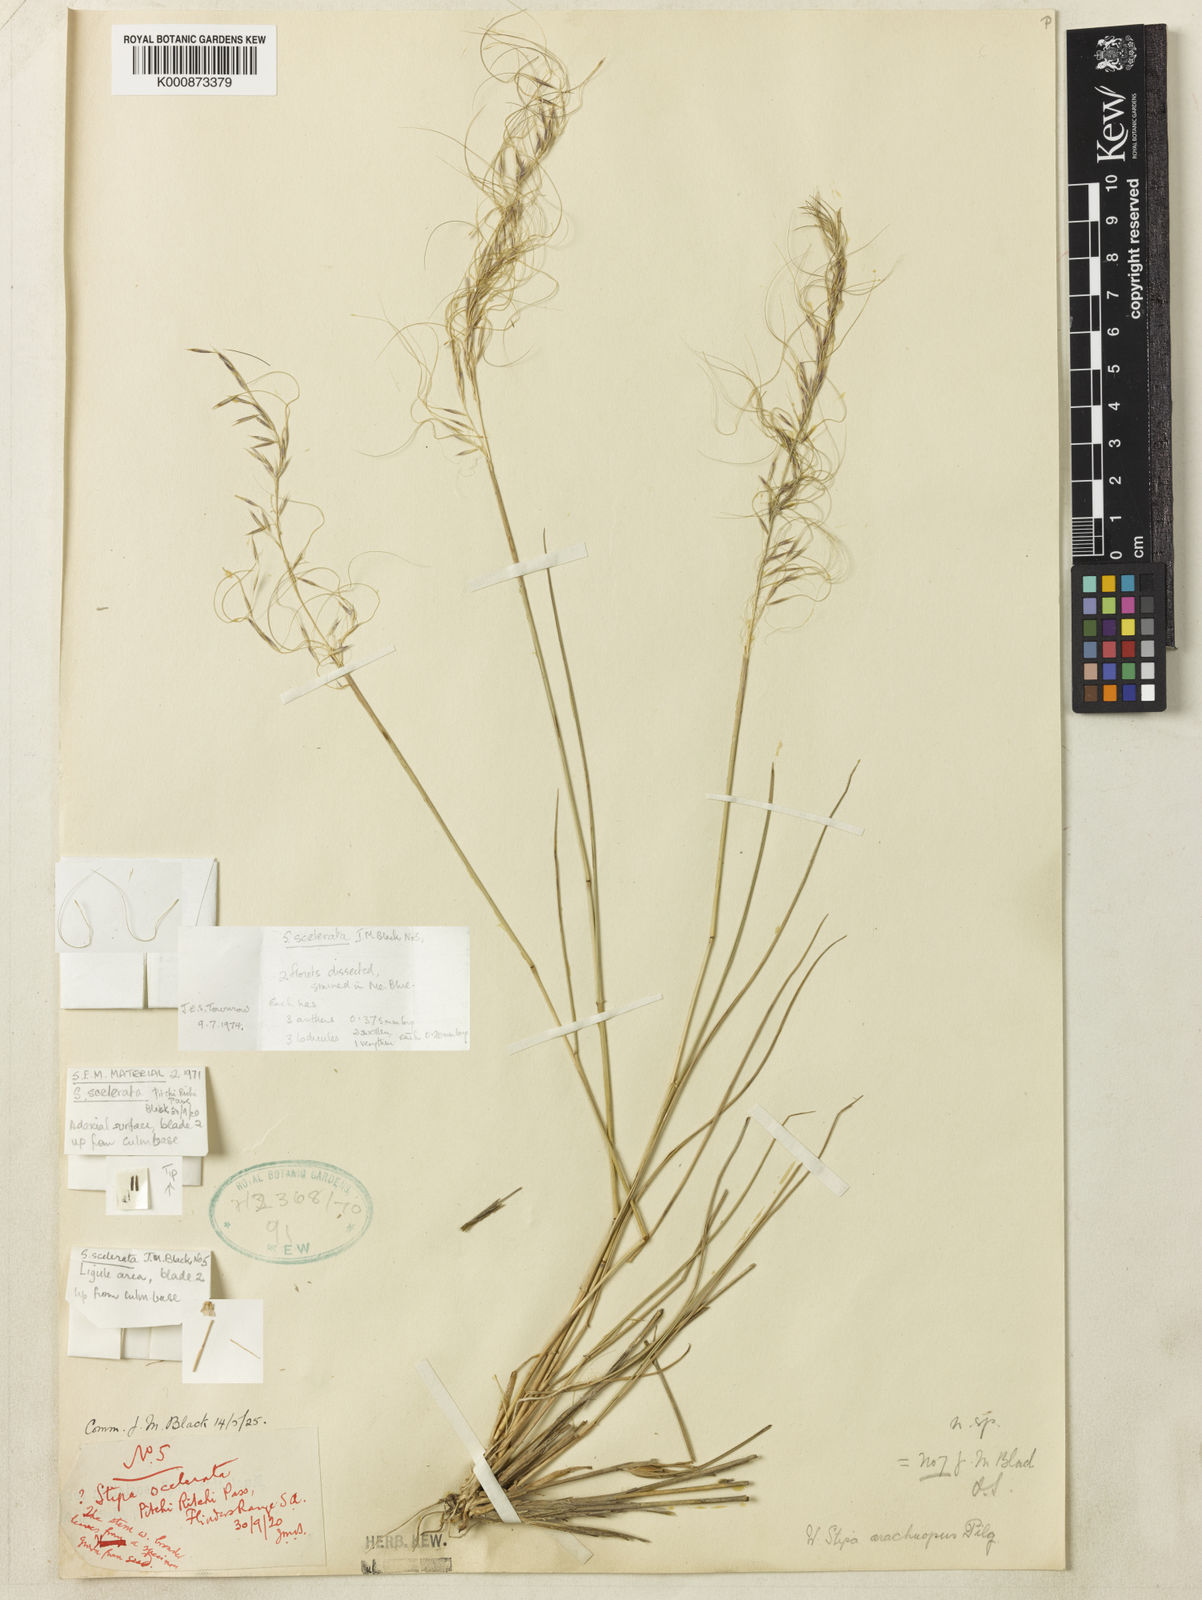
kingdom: Plantae
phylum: Tracheophyta
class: Liliopsida
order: Poales
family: Poaceae
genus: Austrostipa
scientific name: Austrostipa nodosa
